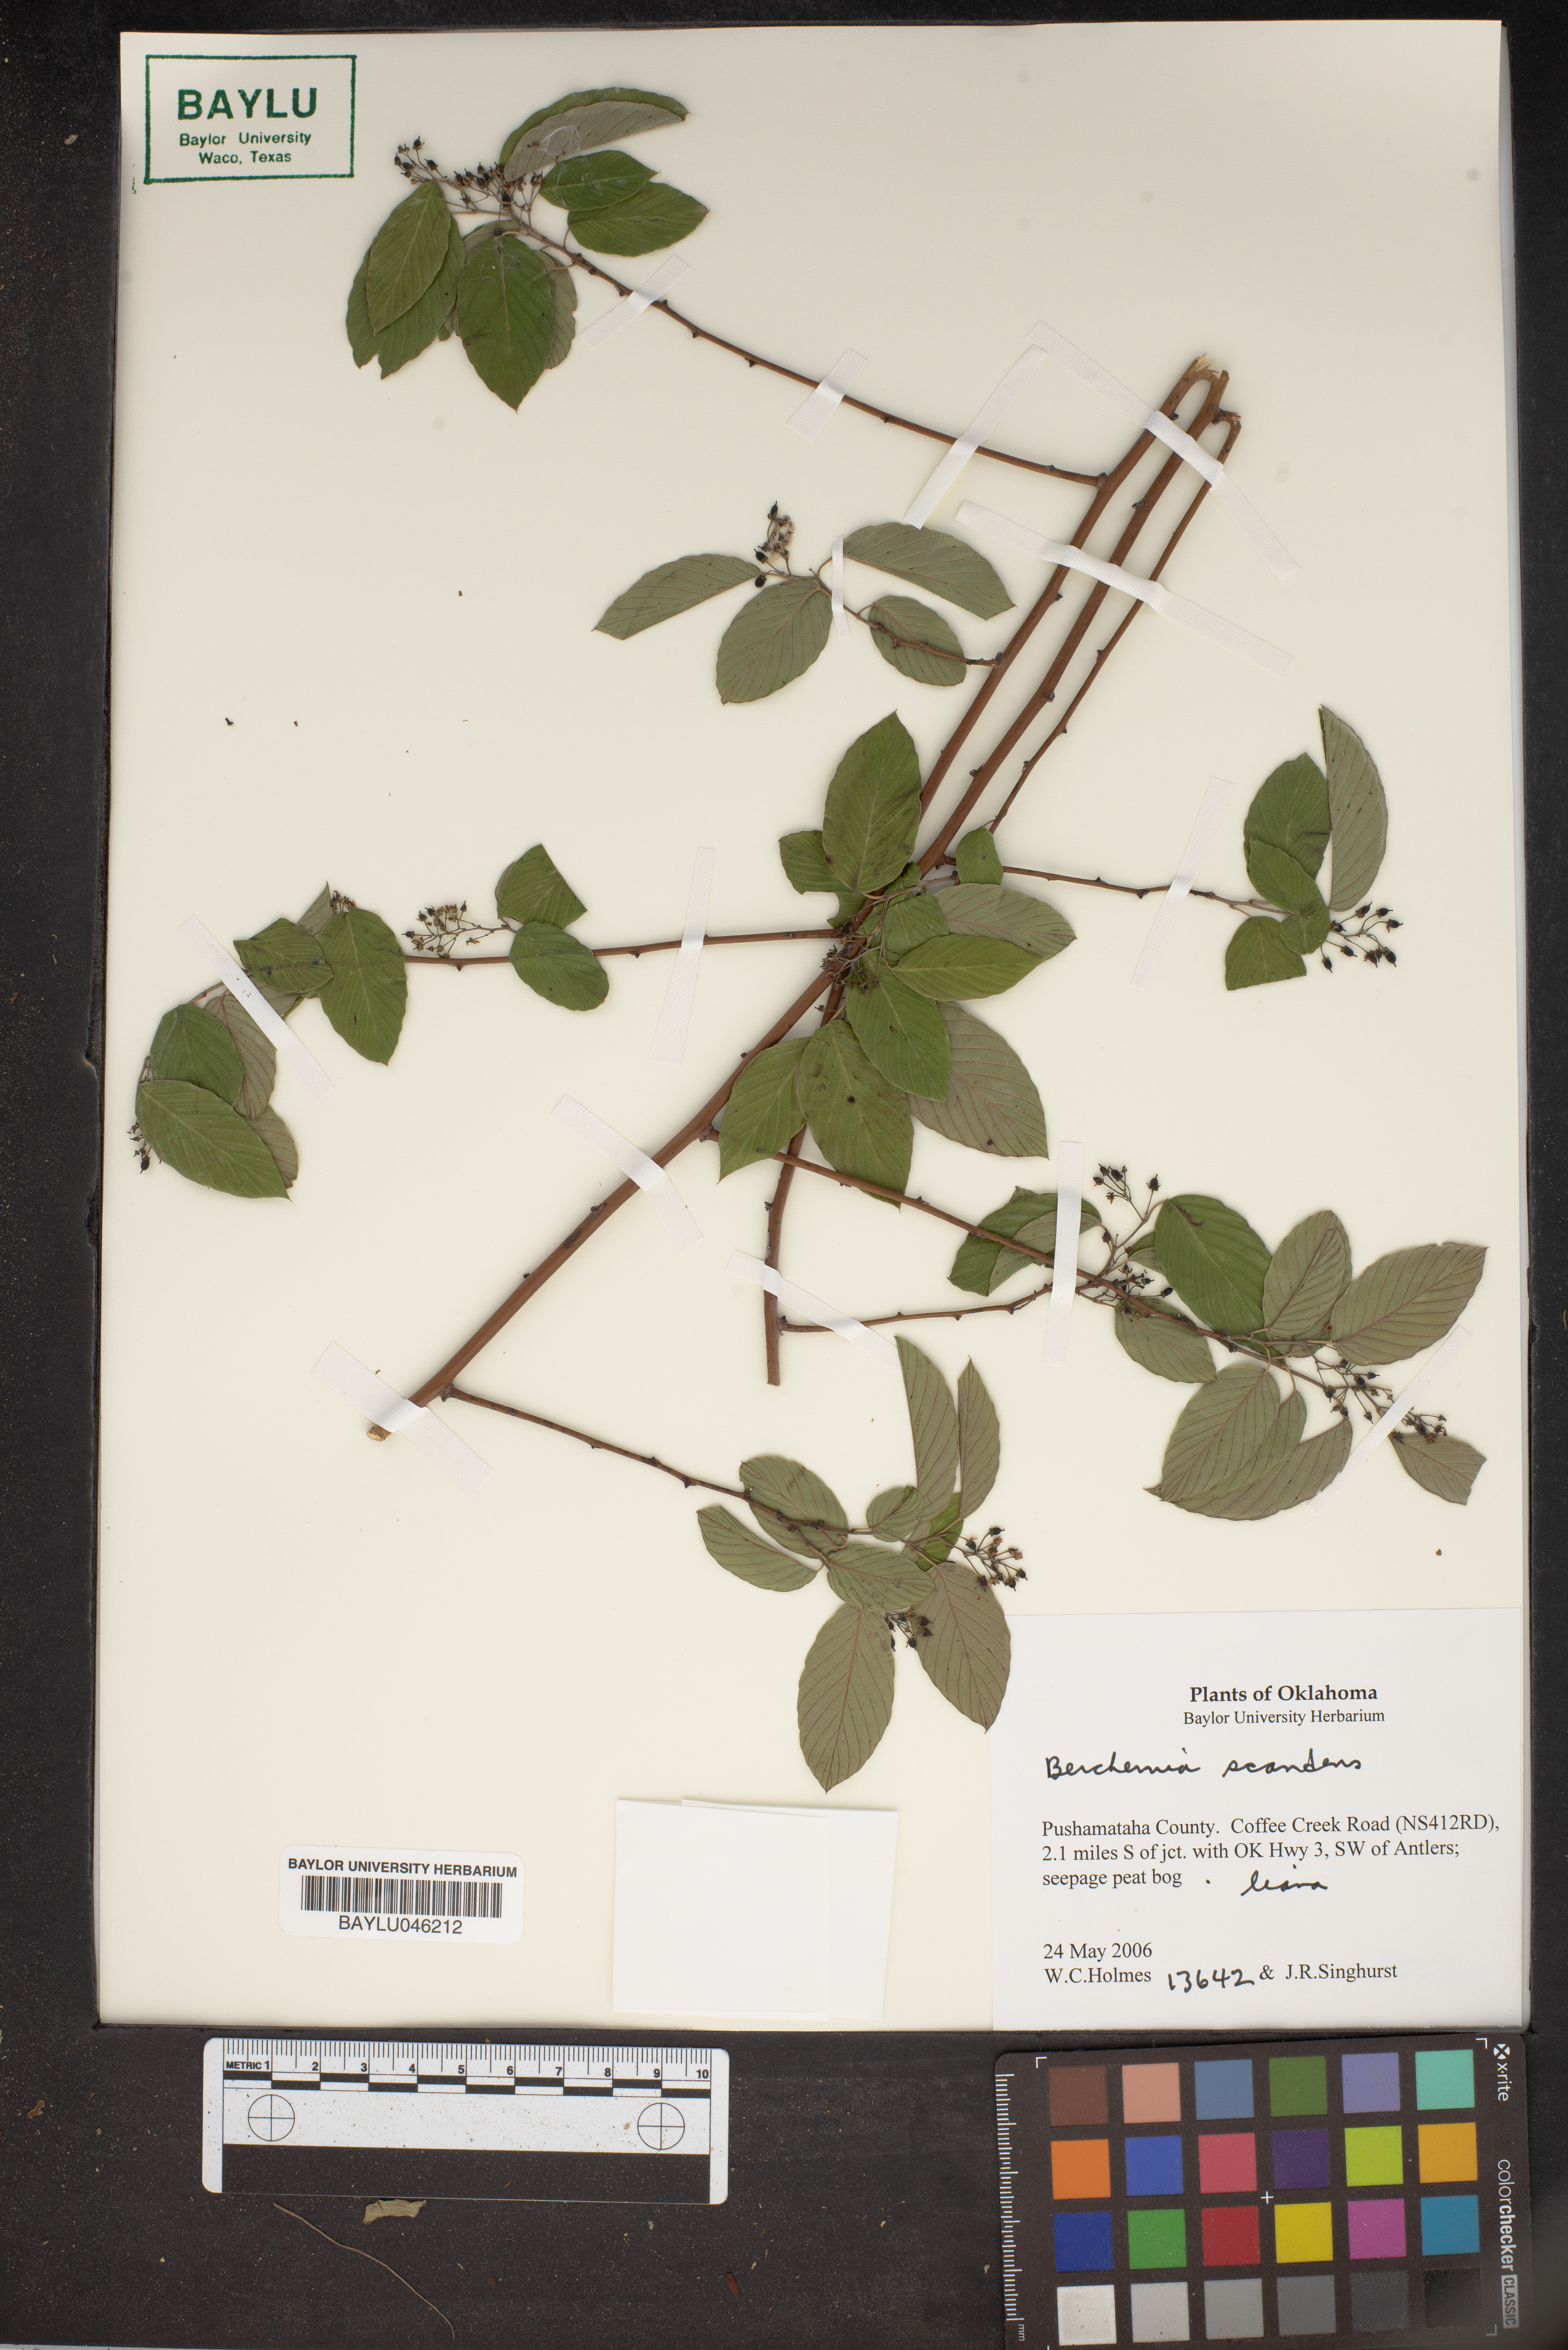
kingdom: Plantae
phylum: Tracheophyta
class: Magnoliopsida
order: Rosales
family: Rhamnaceae
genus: Berchemia
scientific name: Berchemia scandens
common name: Supplejack
